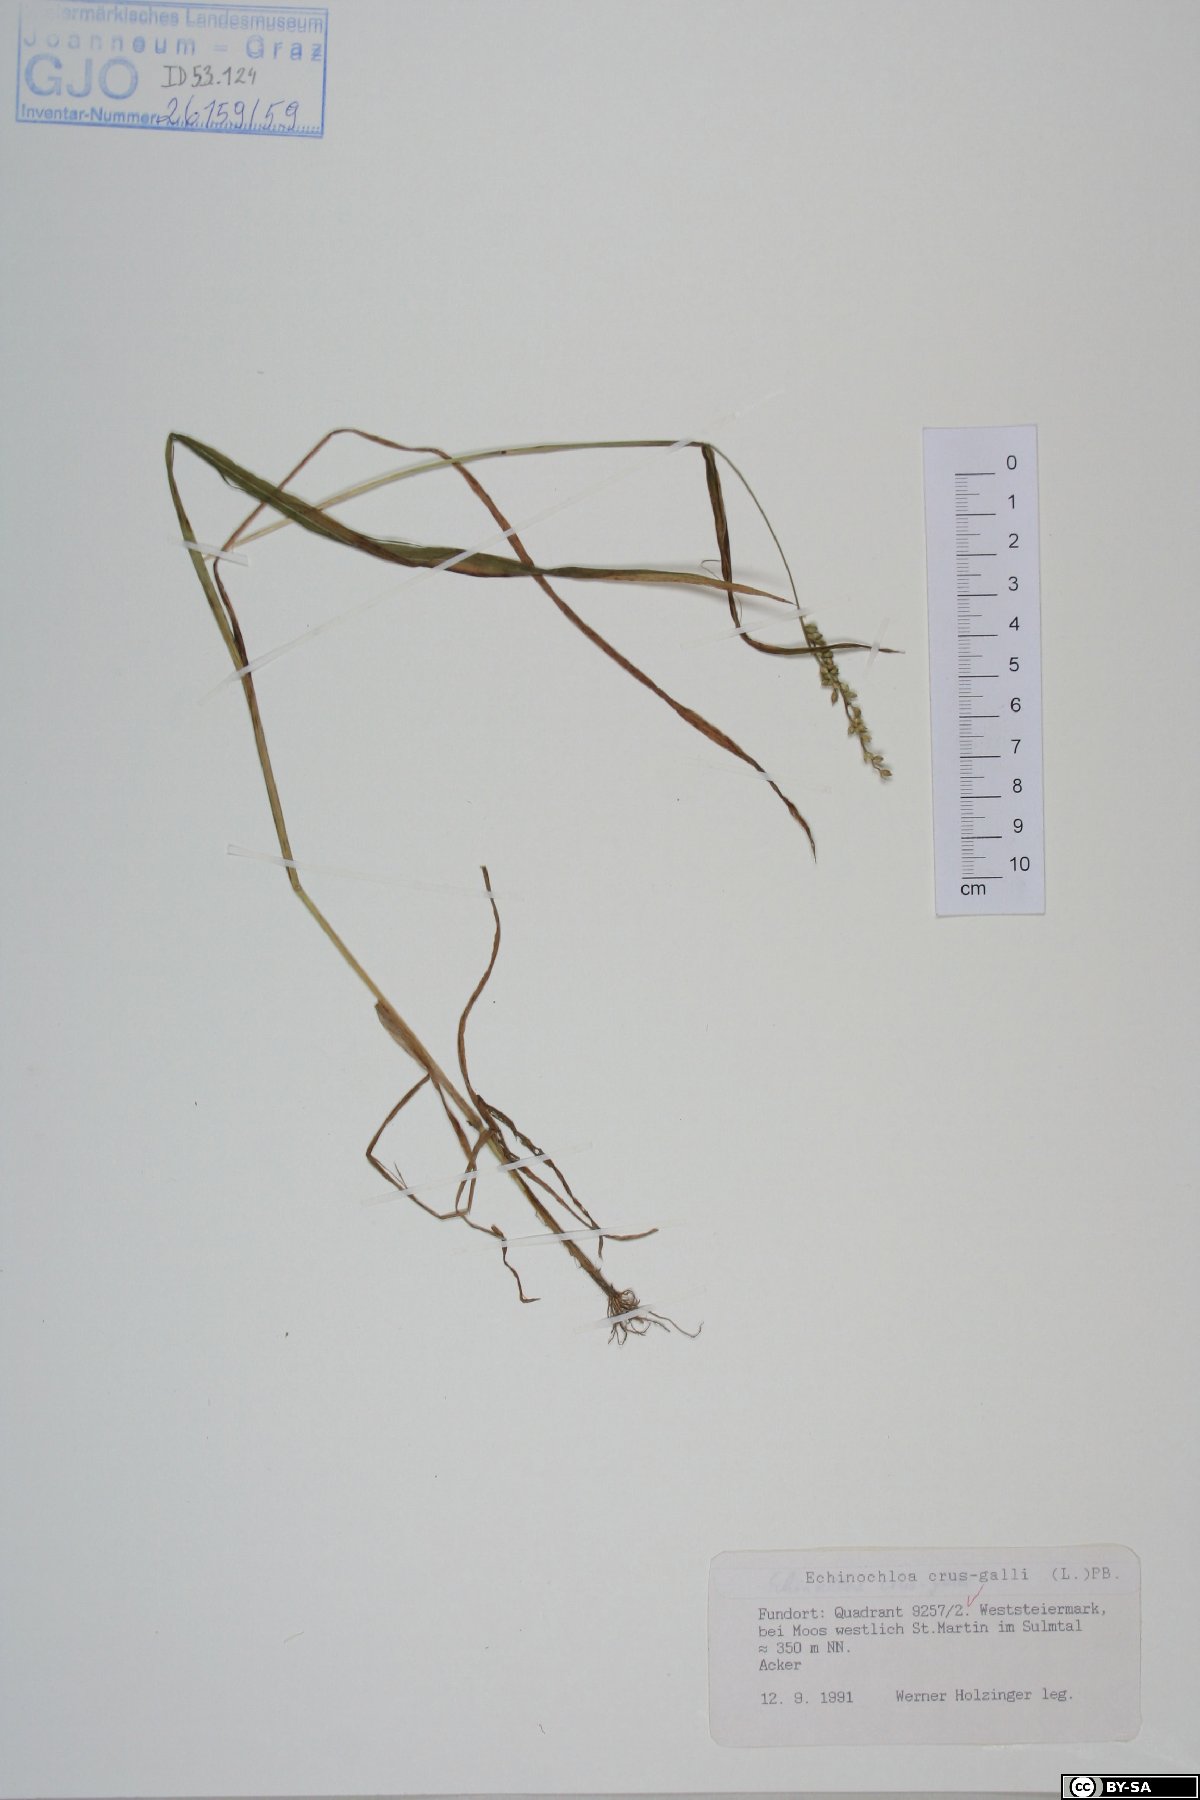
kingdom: Plantae
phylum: Tracheophyta
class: Liliopsida
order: Poales
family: Poaceae
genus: Echinochloa
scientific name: Echinochloa crus-galli
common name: Cockspur
